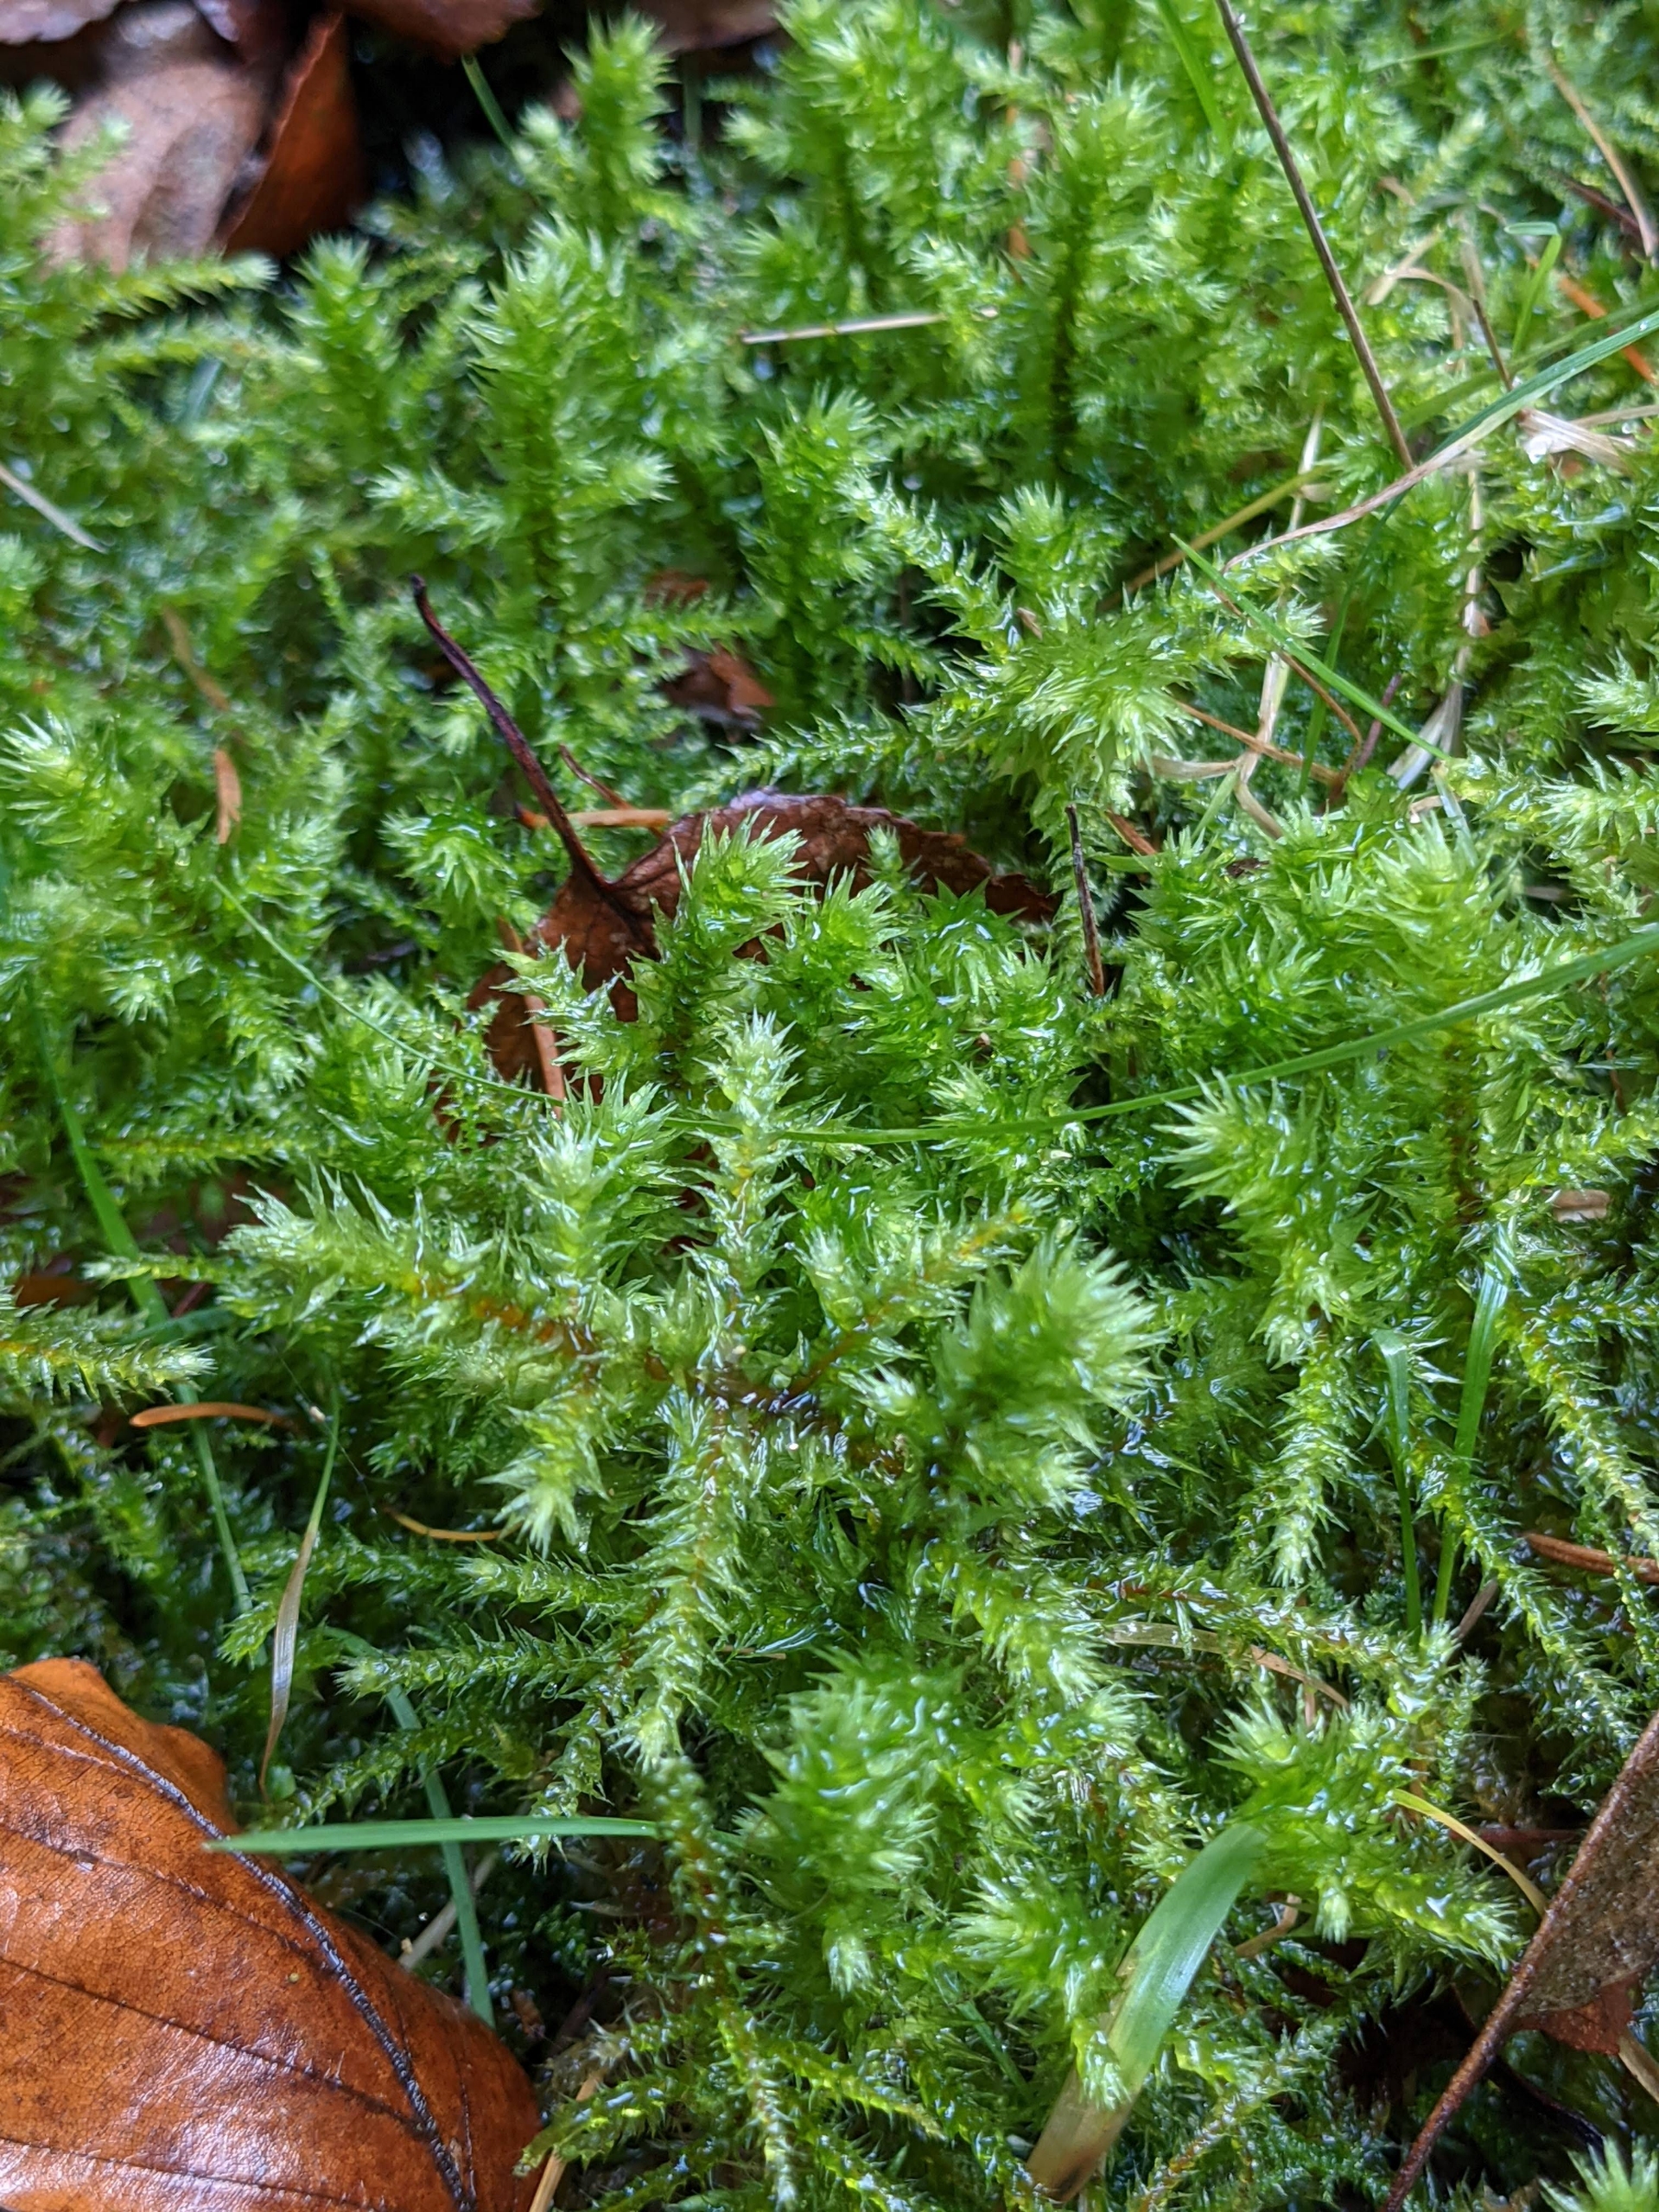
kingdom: Plantae
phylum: Bryophyta
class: Bryopsida
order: Hypnales
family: Hylocomiaceae
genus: Hylocomiadelphus
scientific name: Hylocomiadelphus triquetrus
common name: Stor kransemos
